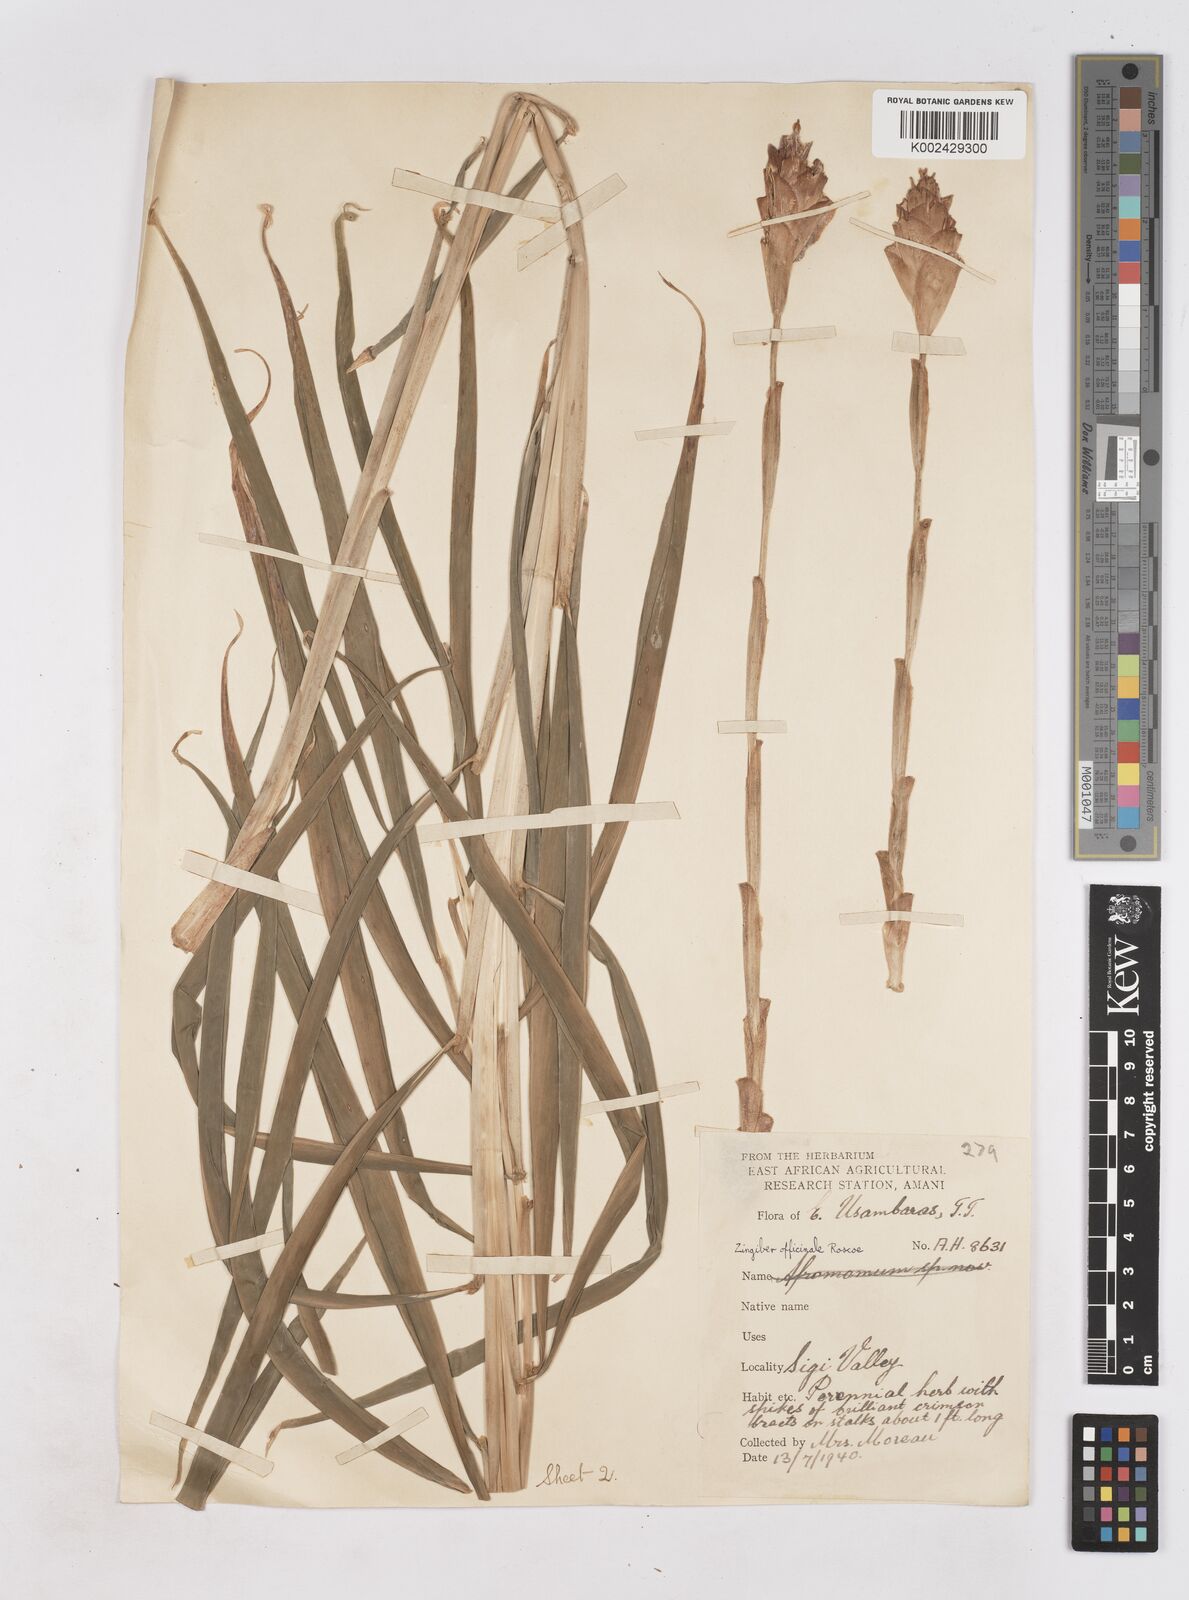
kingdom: Plantae
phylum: Tracheophyta
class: Liliopsida
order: Zingiberales
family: Zingiberaceae
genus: Zingiber
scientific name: Zingiber officinale
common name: Ginger
